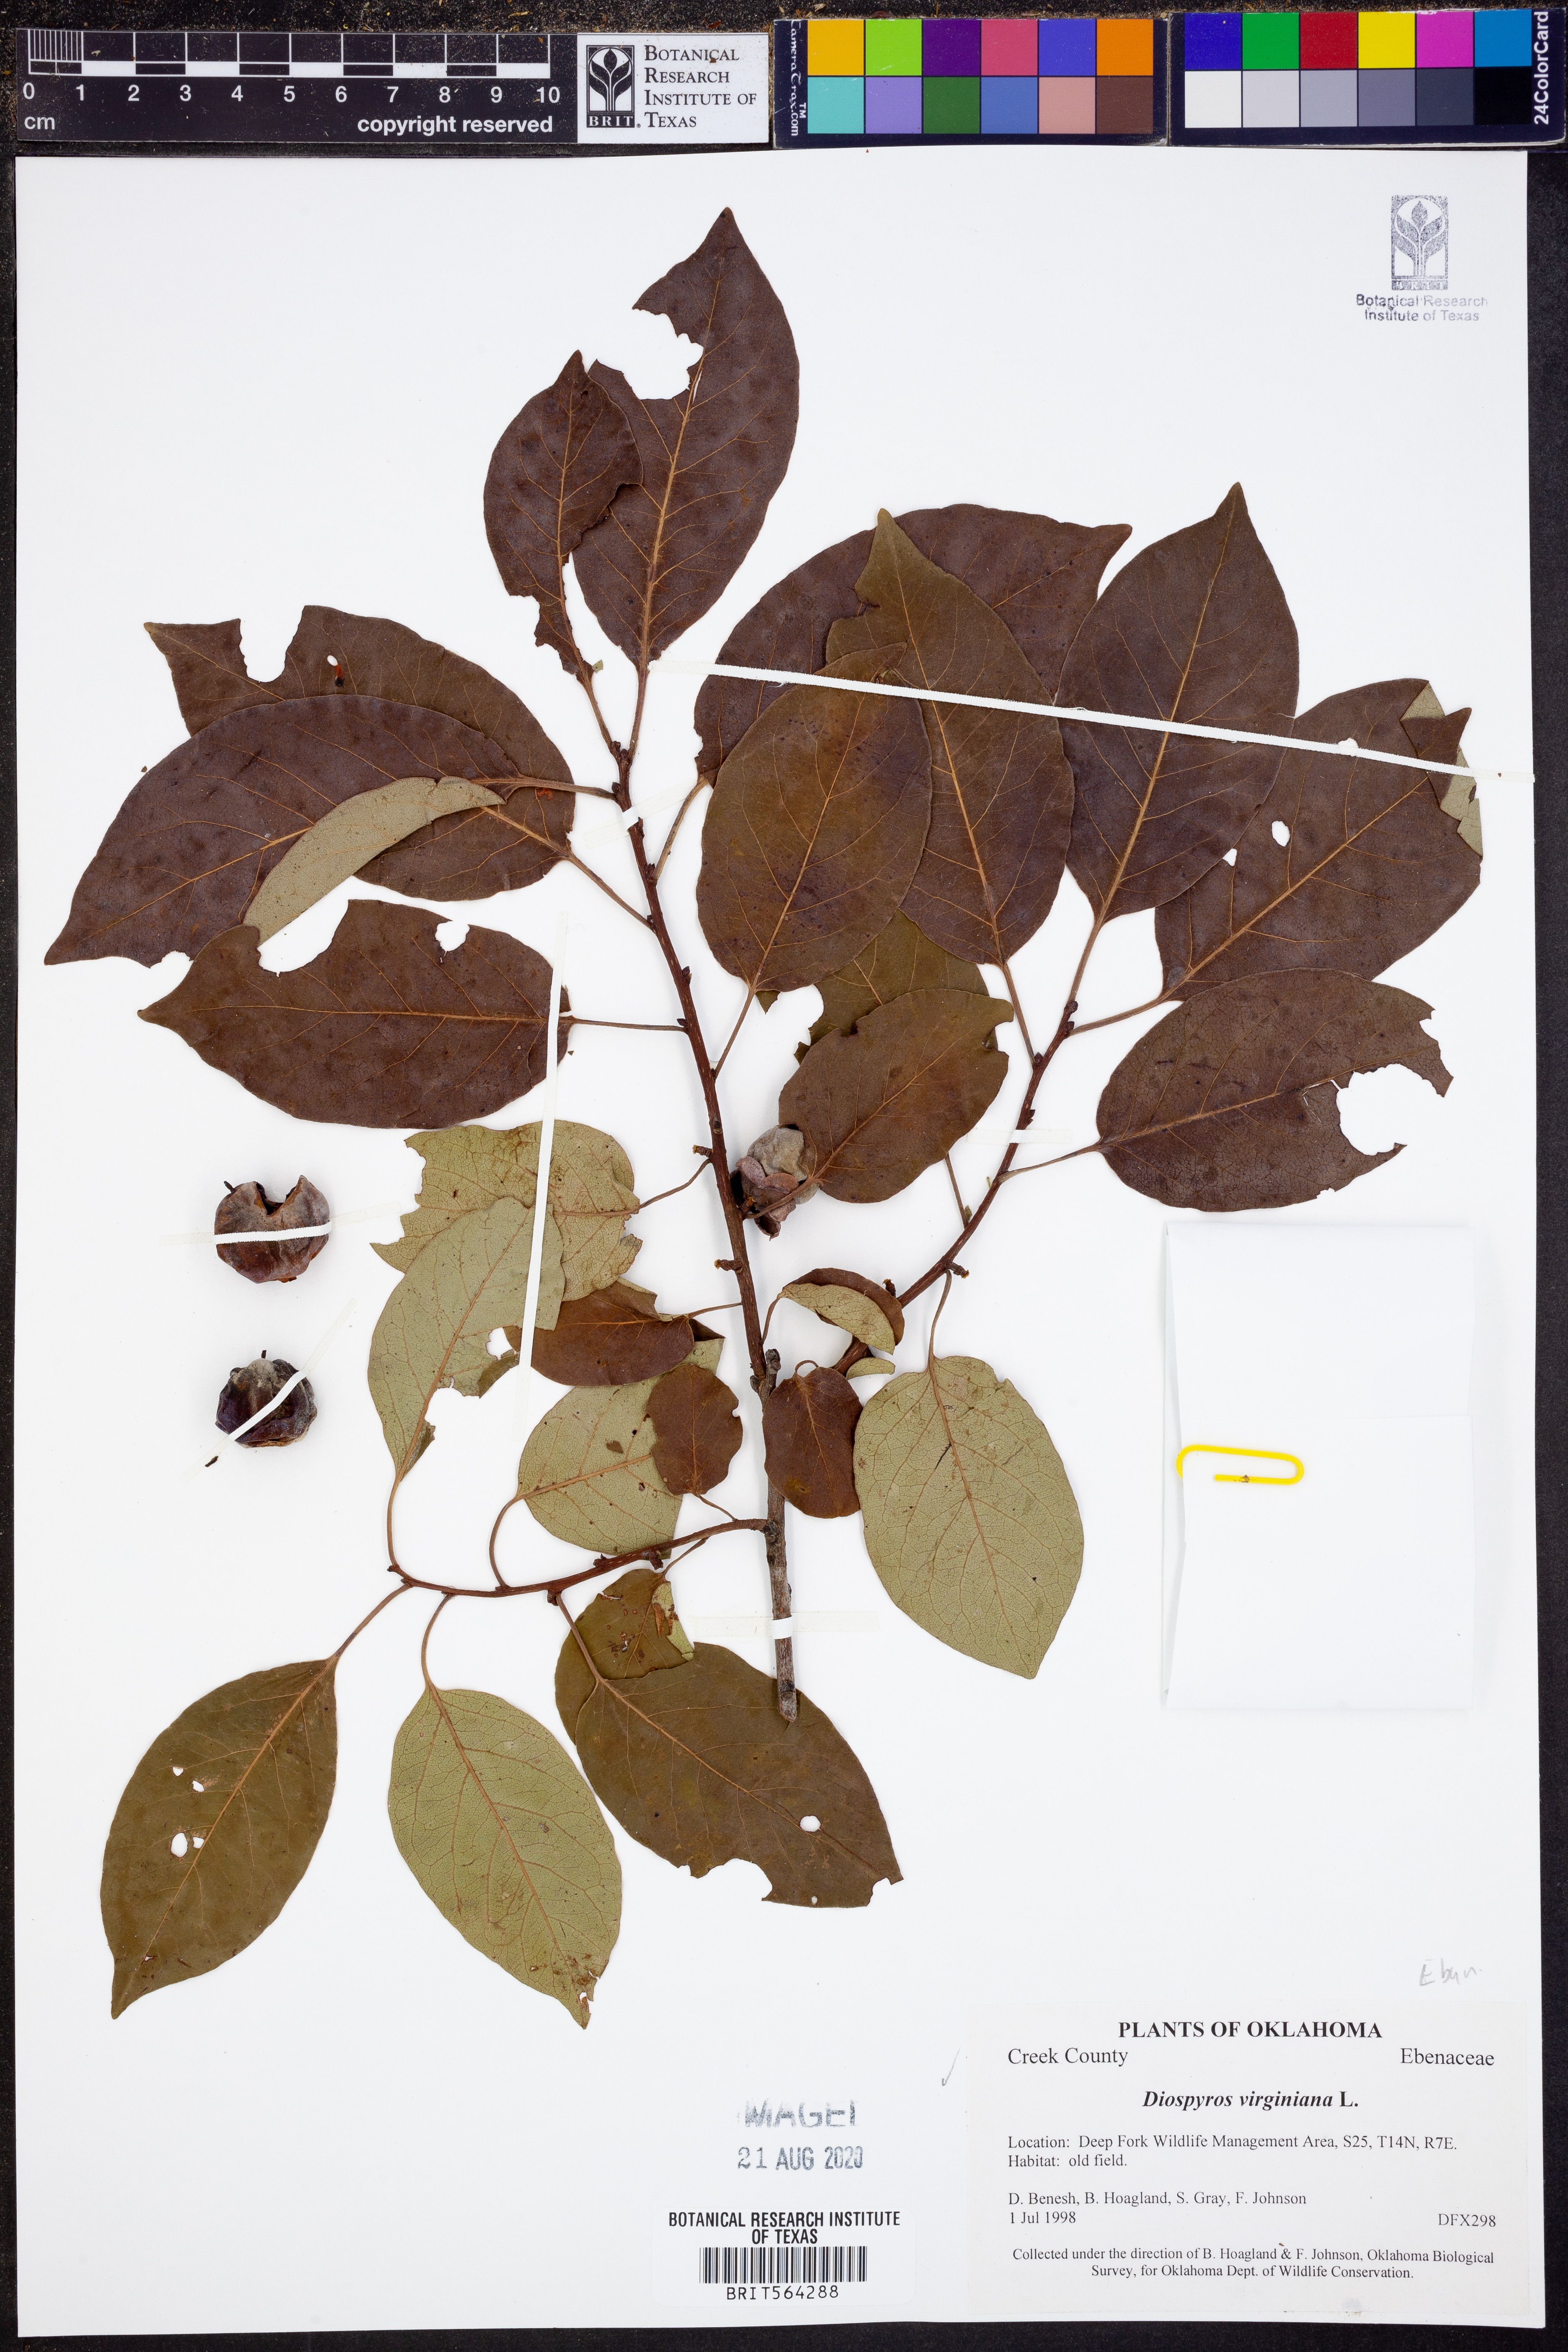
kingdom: Plantae
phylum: Tracheophyta
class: Magnoliopsida
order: Ericales
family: Ebenaceae
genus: Diospyros
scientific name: Diospyros virginiana
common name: Persimmon
